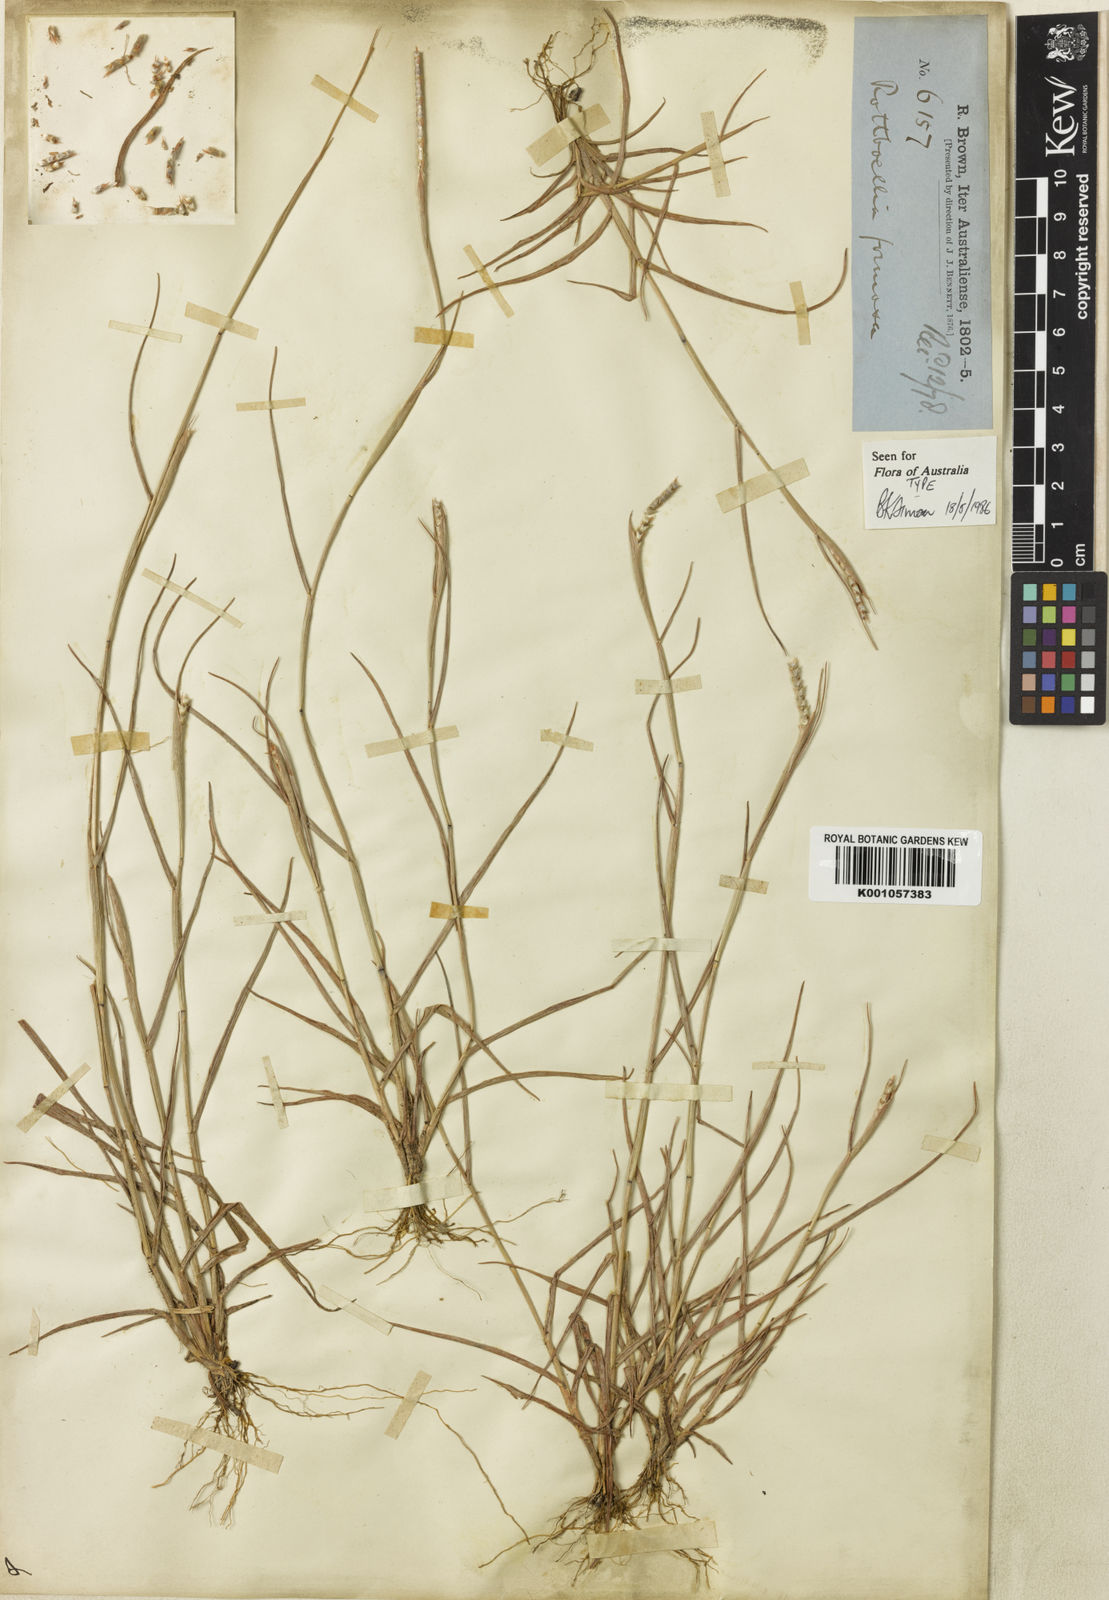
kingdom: Plantae
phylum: Tracheophyta
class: Liliopsida
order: Poales
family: Poaceae
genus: Heteropholis
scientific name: Heteropholis
